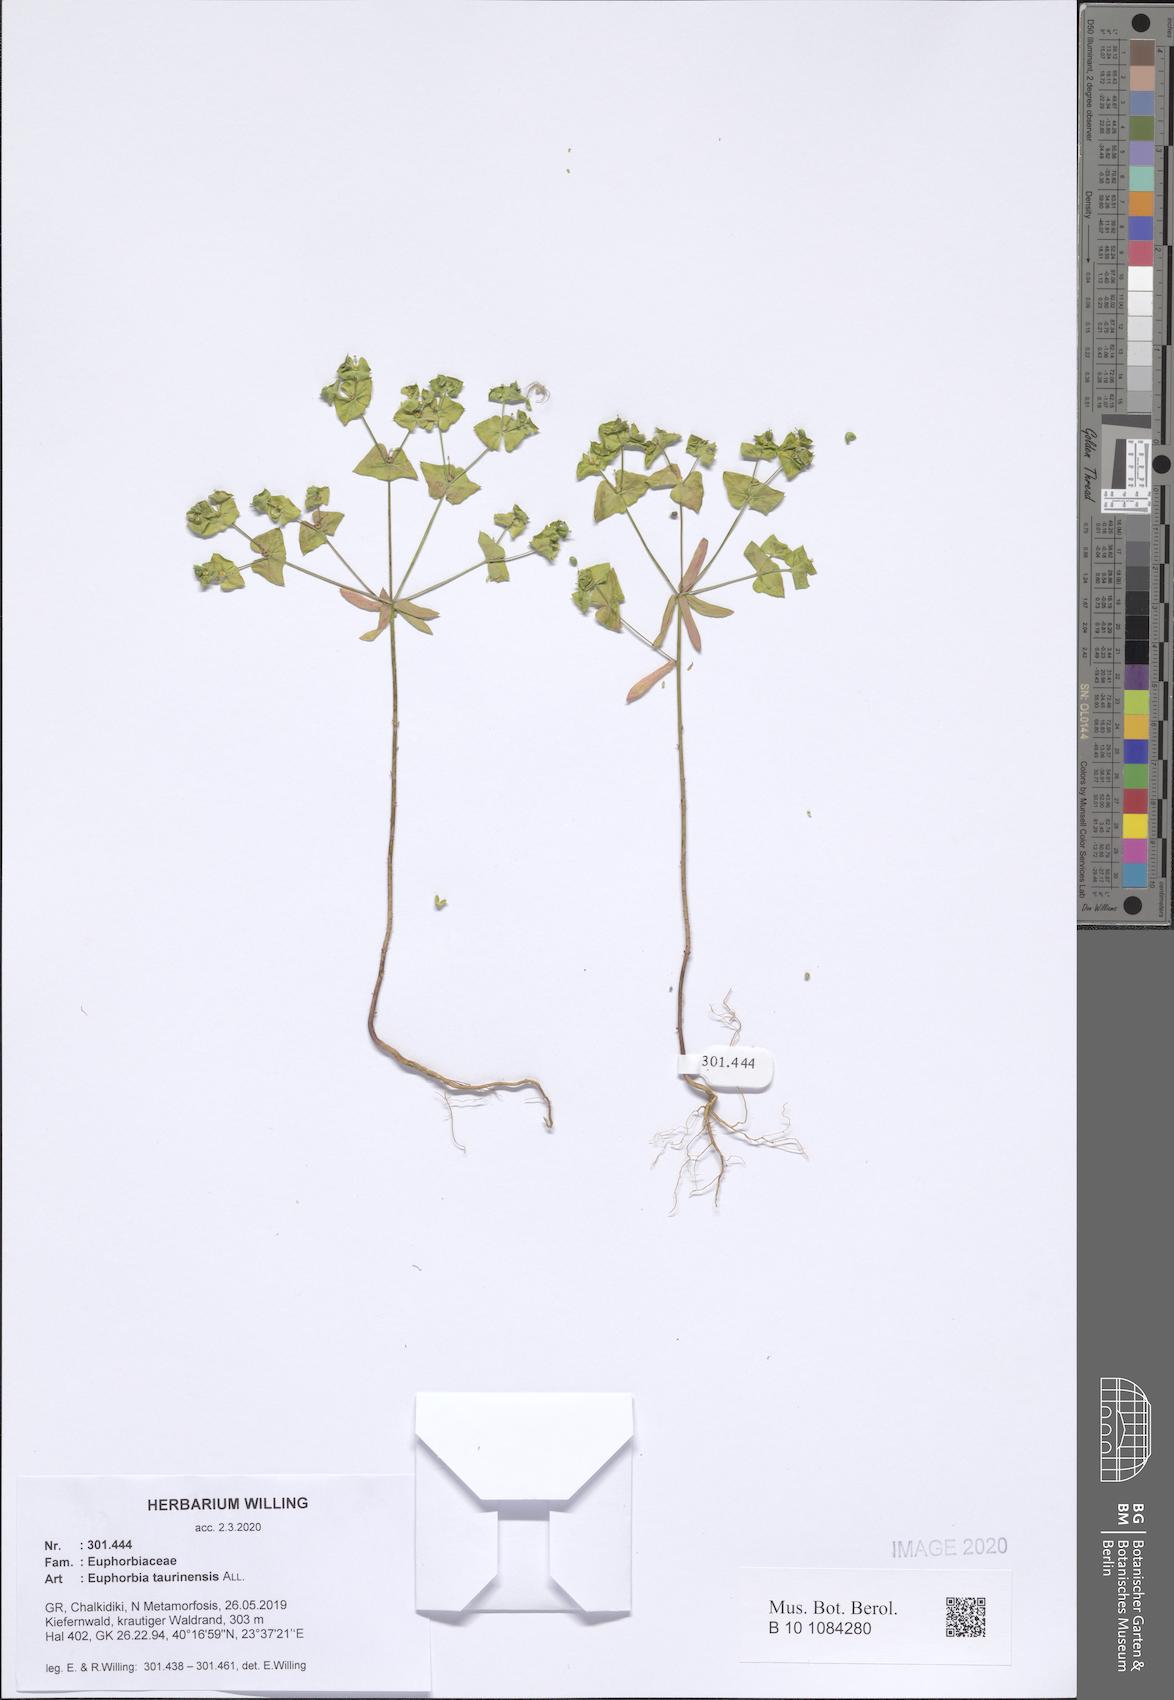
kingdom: Plantae
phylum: Tracheophyta
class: Magnoliopsida
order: Malpighiales
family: Euphorbiaceae
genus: Euphorbia
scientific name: Euphorbia taurinensis
